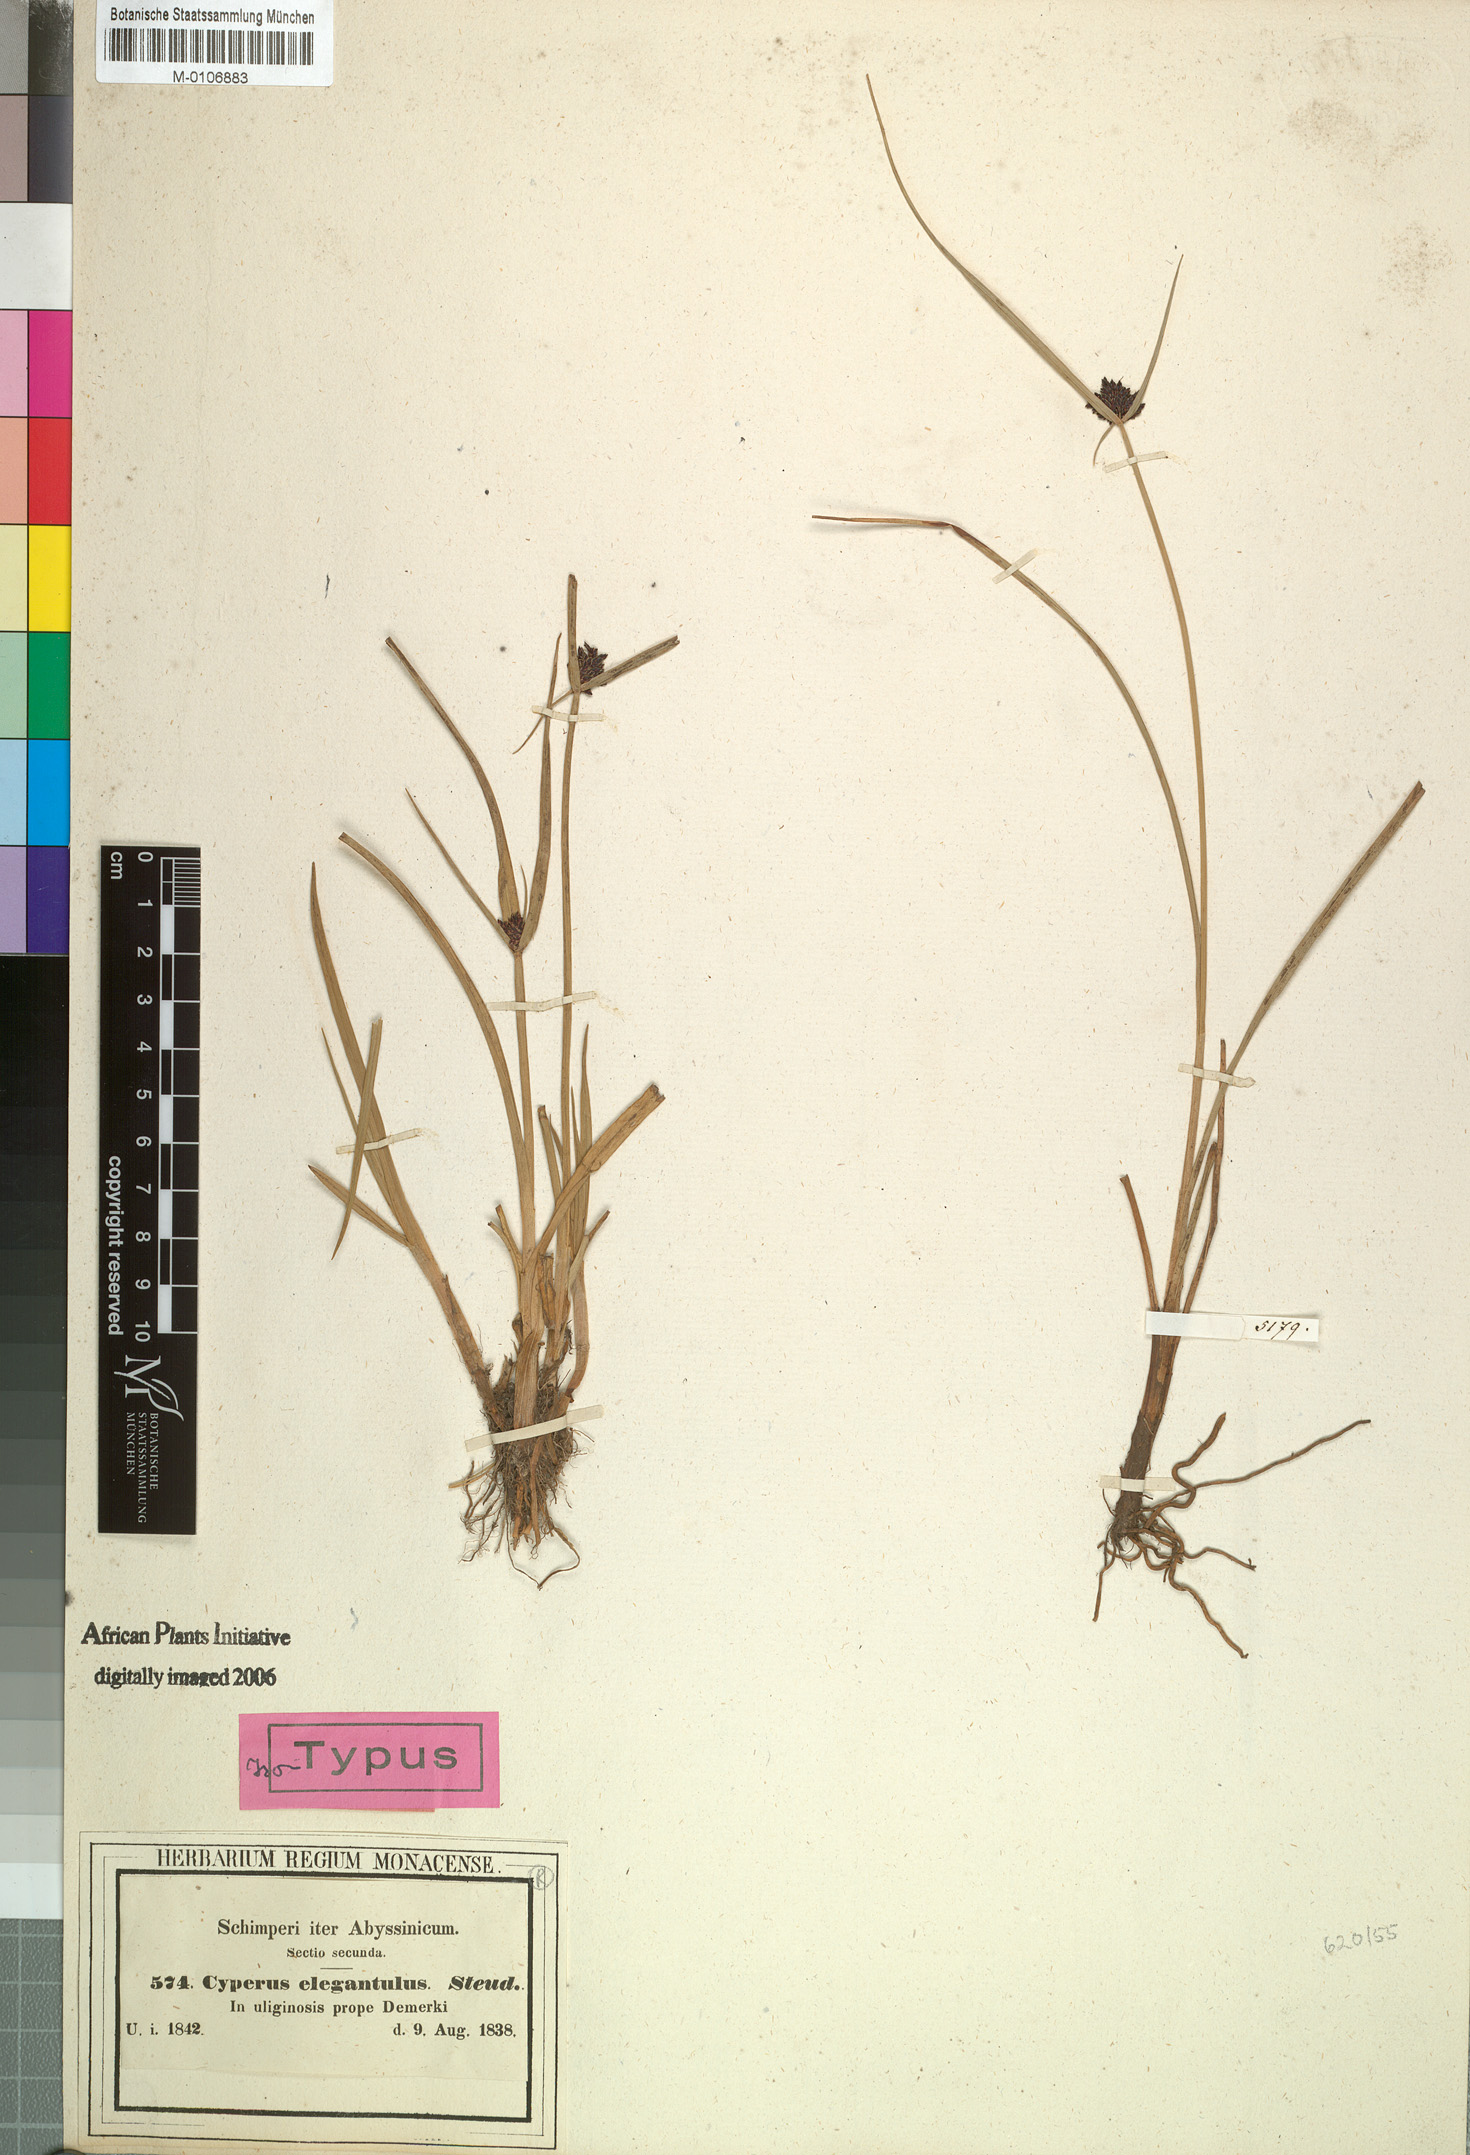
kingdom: Plantae
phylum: Tracheophyta
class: Liliopsida
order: Poales
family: Cyperaceae
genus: Cyperus
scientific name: Cyperus elegantulus
